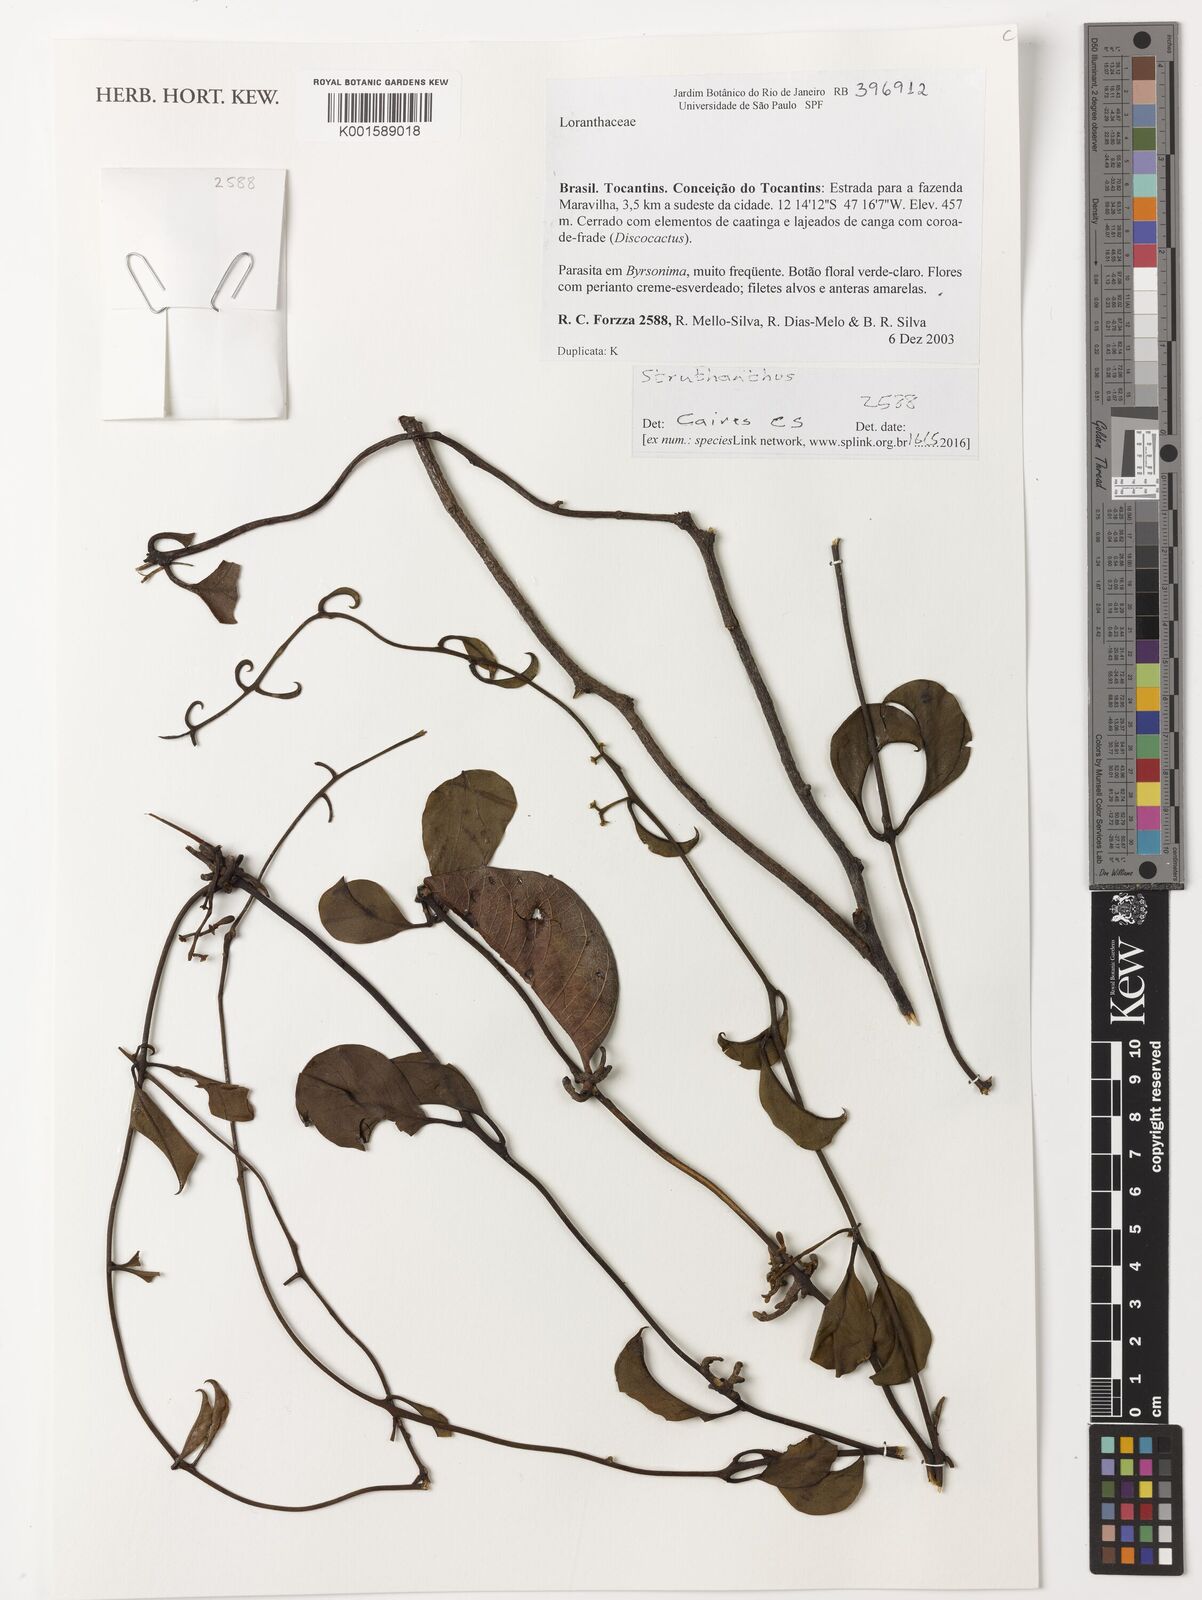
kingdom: Plantae
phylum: Tracheophyta
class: Magnoliopsida
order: Santalales
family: Loranthaceae
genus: Struthanthus
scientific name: Struthanthus
